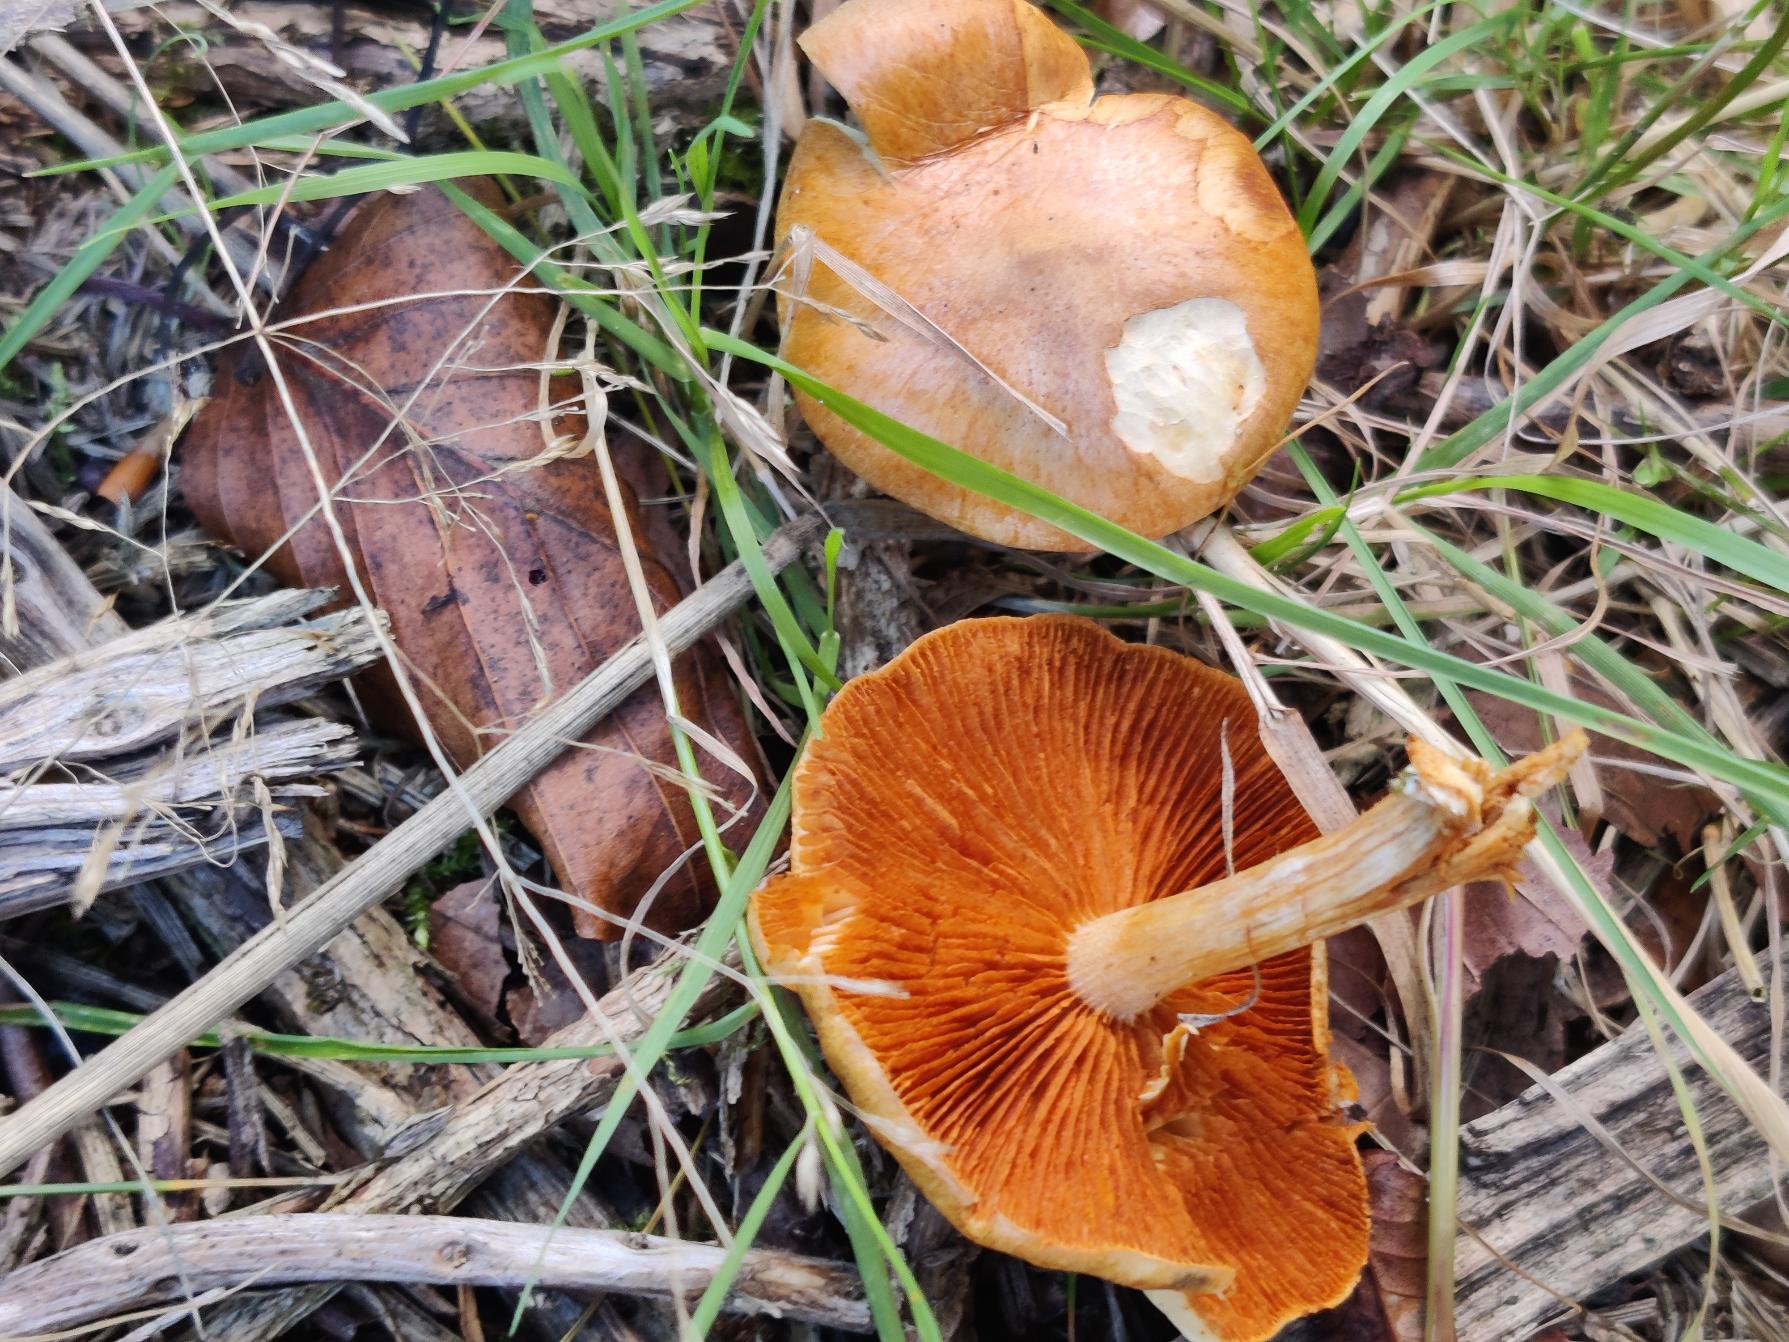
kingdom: Fungi
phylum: Basidiomycota
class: Agaricomycetes
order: Agaricales
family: Hymenogastraceae
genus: Gymnopilus
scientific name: Gymnopilus penetrans
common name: Plettet flammehat
